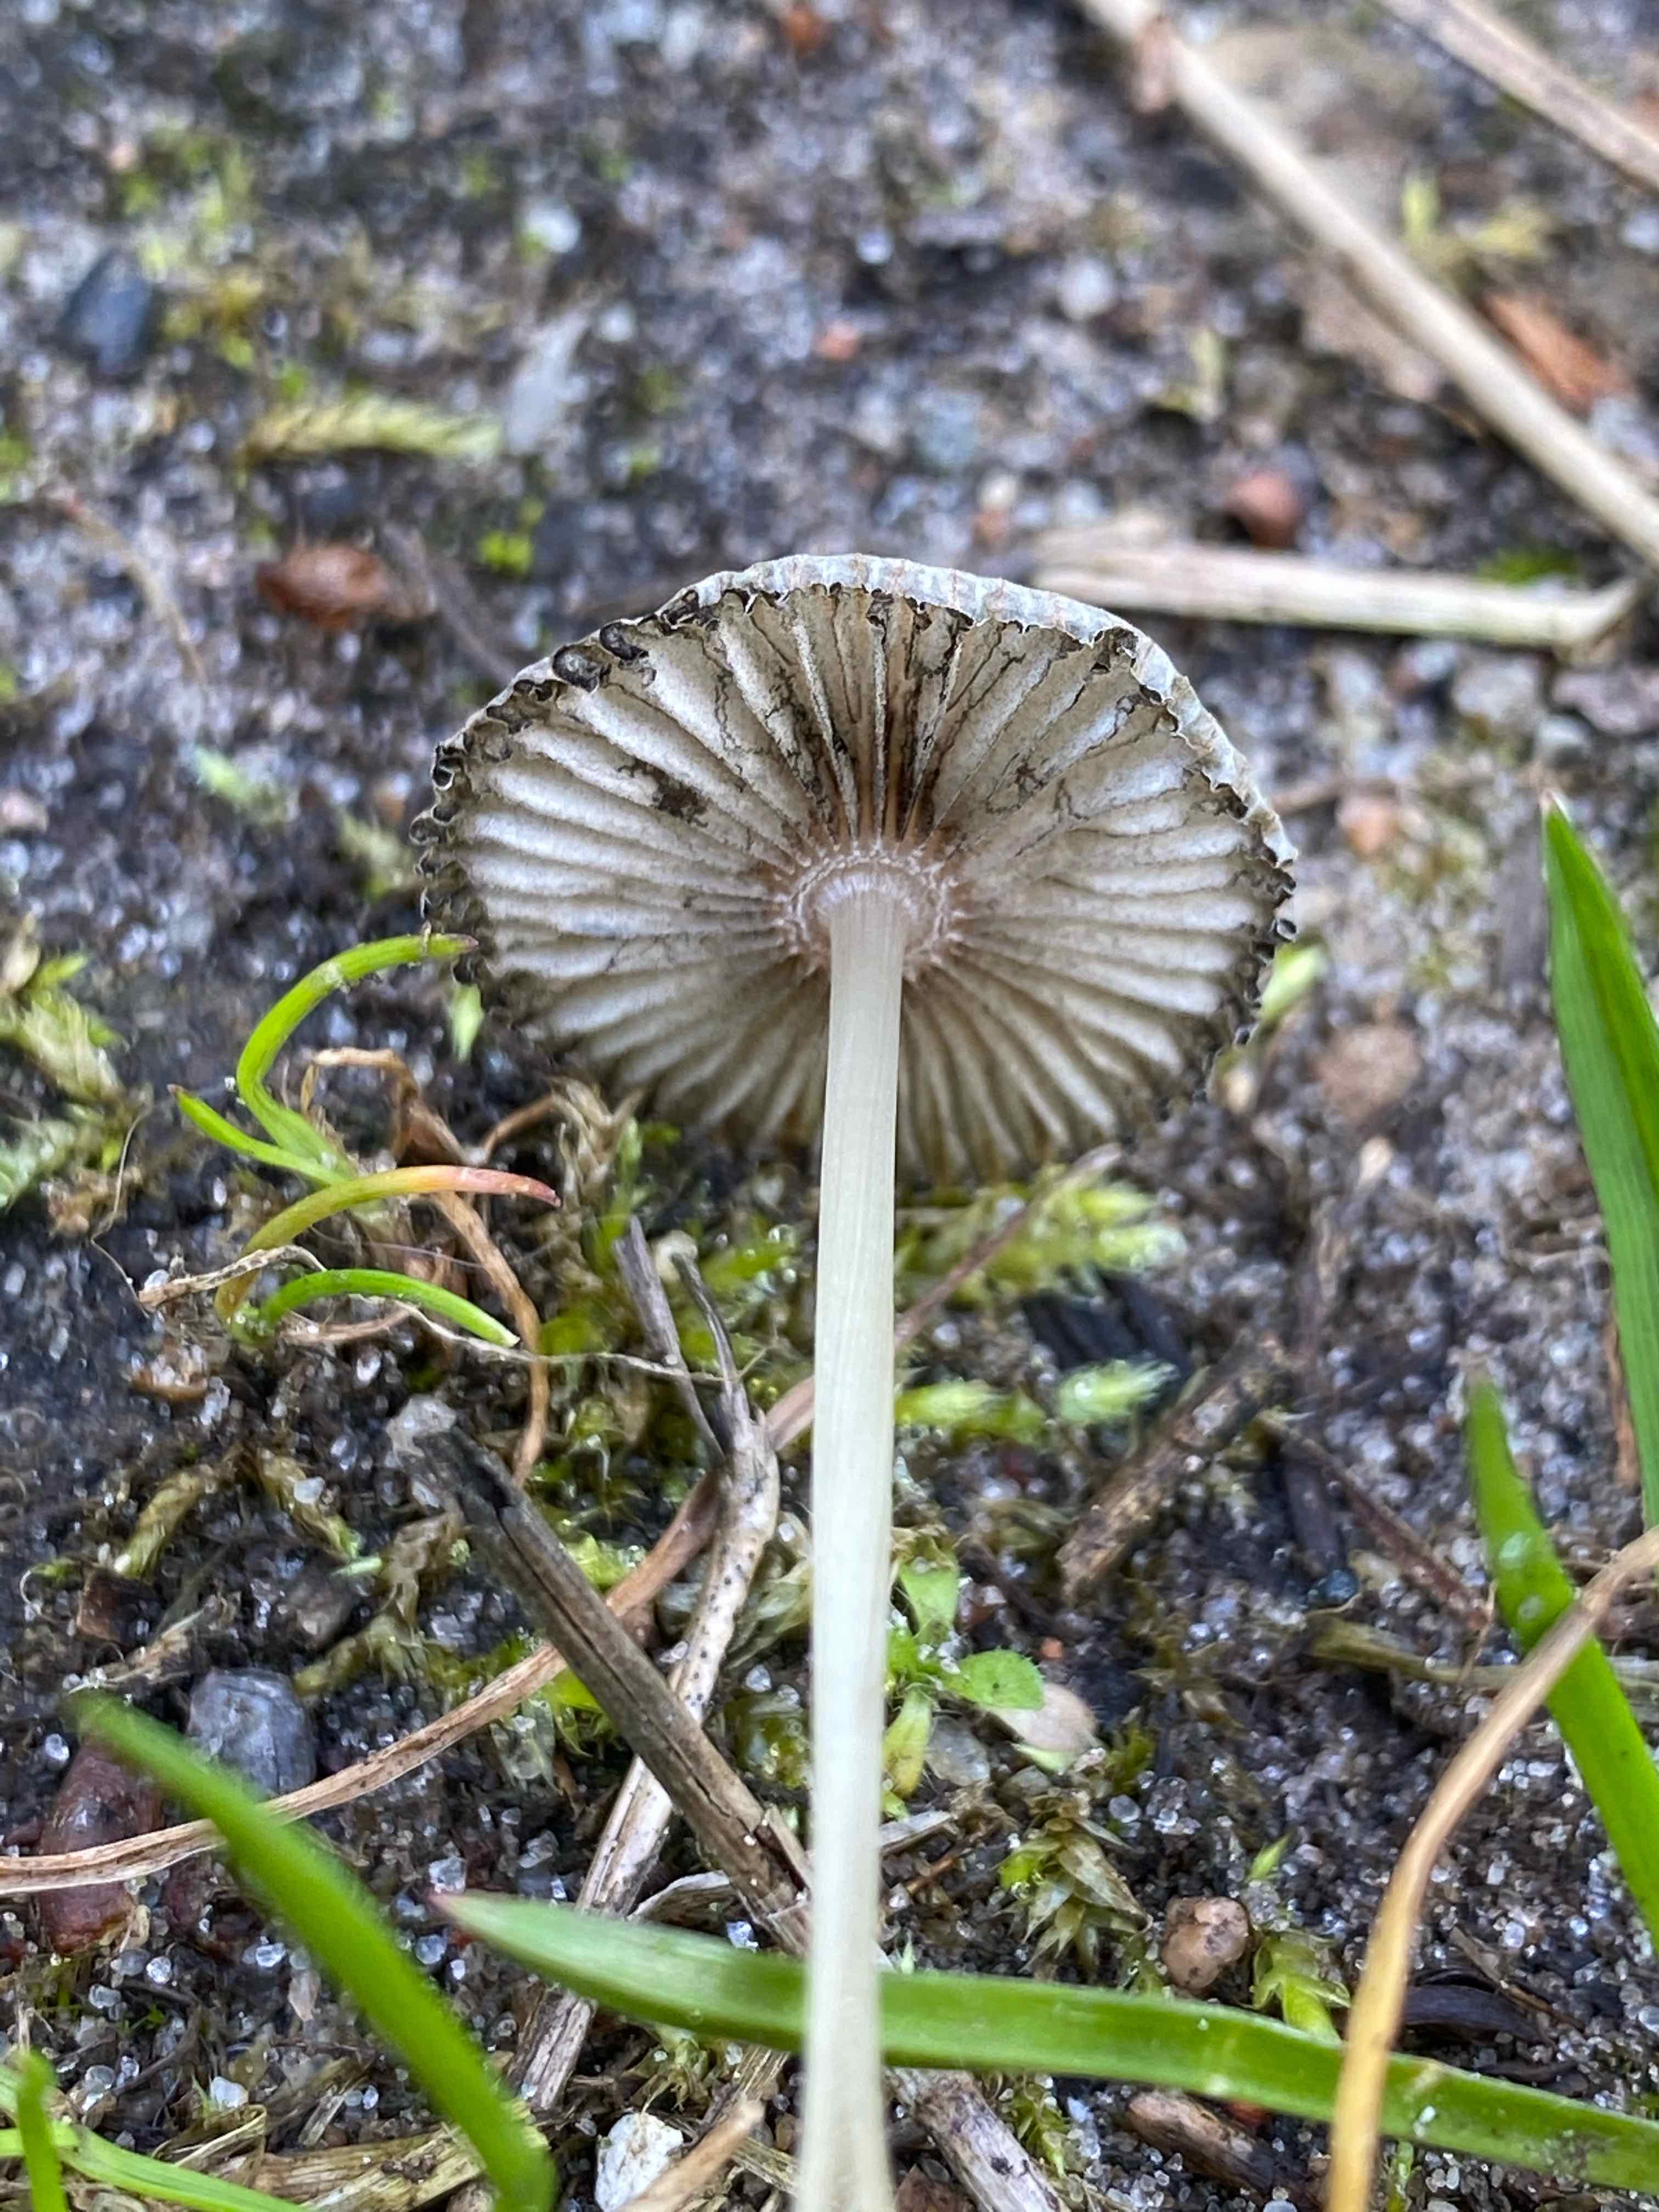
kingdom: Fungi
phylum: Basidiomycota
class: Agaricomycetes
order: Agaricales
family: Psathyrellaceae
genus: Parasola
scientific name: Parasola
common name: hjulhat
